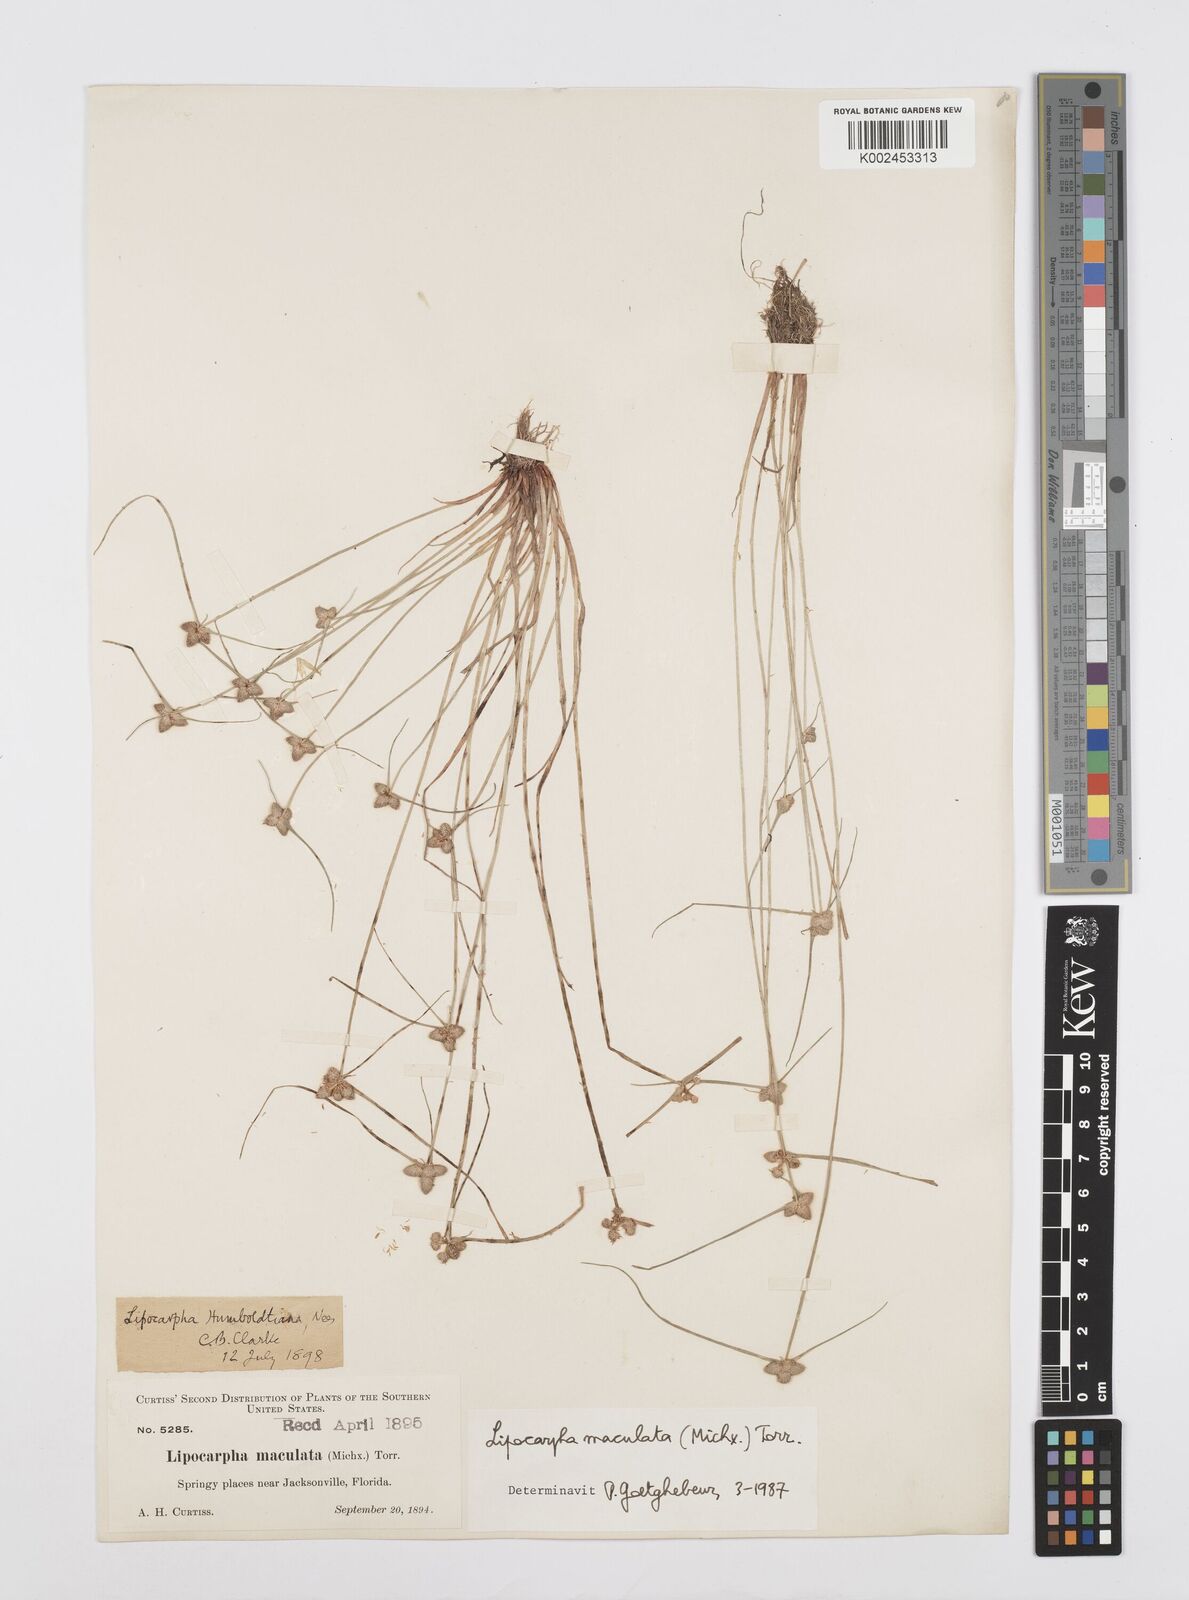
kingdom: Plantae
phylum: Tracheophyta
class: Liliopsida
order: Poales
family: Cyperaceae
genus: Cyperus
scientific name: Cyperus maculatus
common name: Maculated sedge
